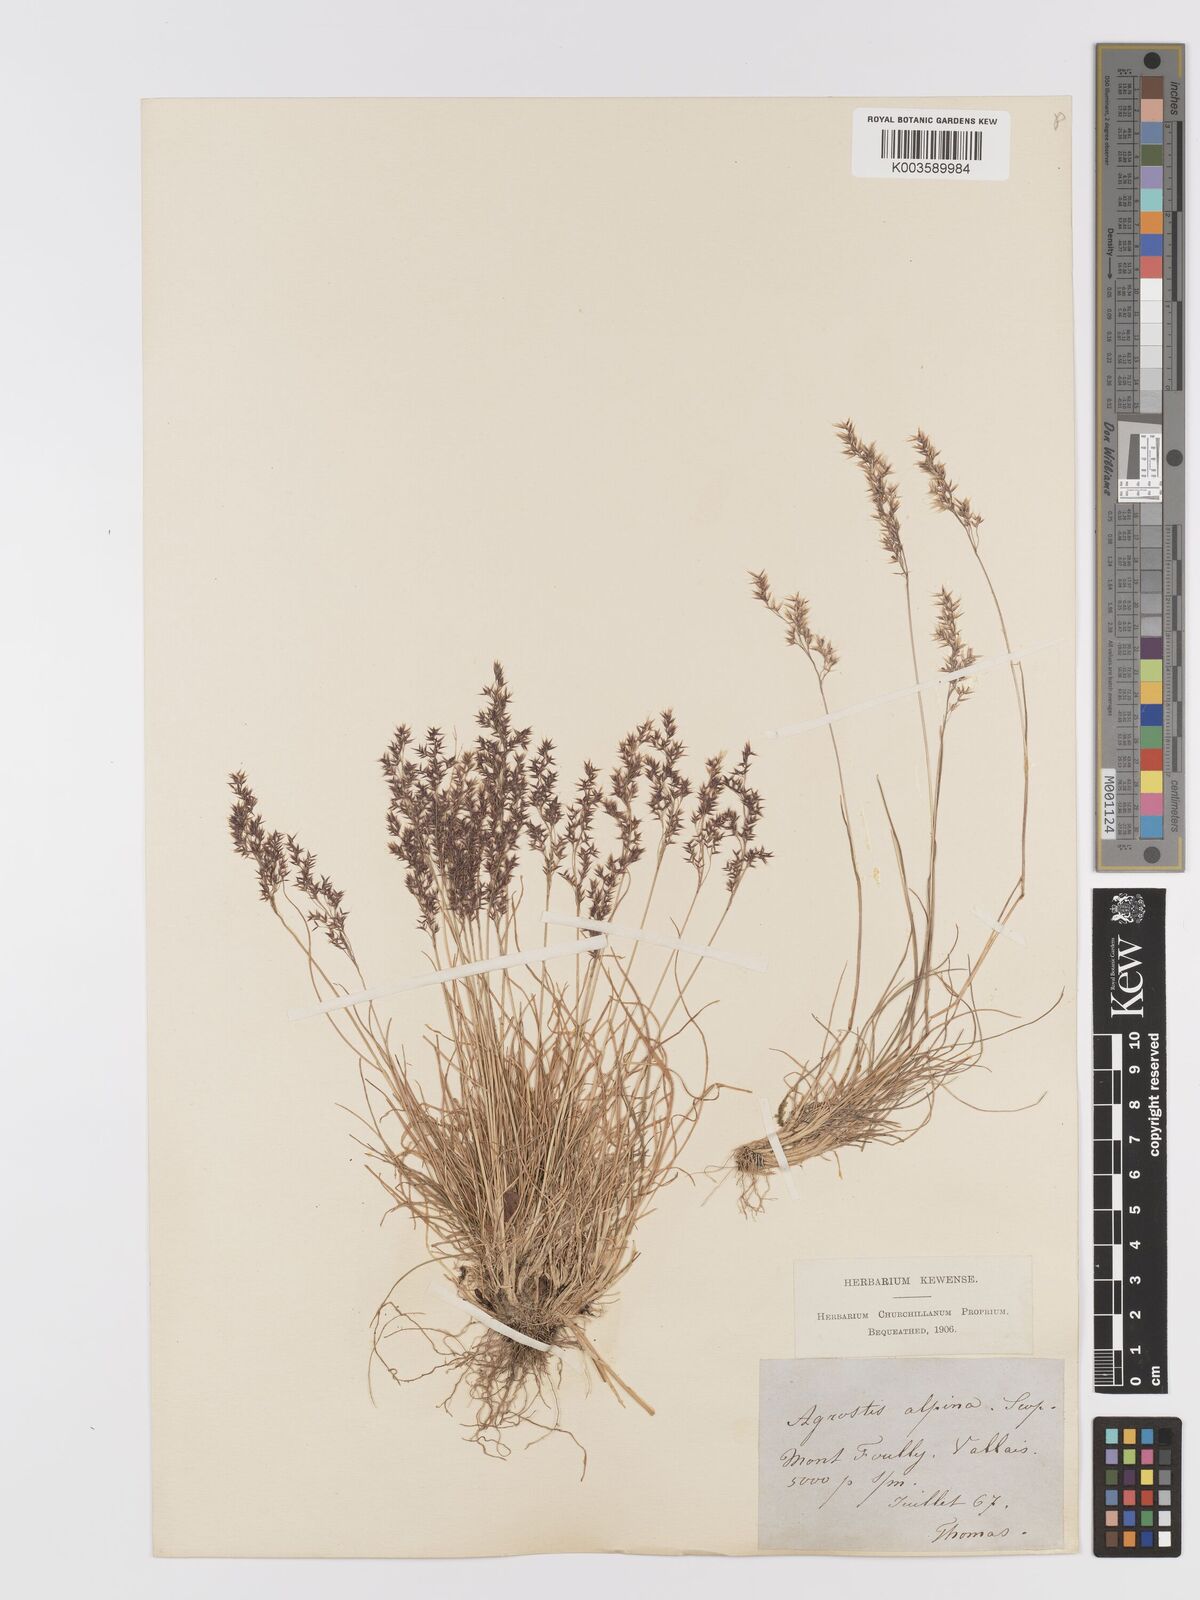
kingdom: Plantae
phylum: Tracheophyta
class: Liliopsida
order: Poales
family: Poaceae
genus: Alpagrostis
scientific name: Alpagrostis alpina
